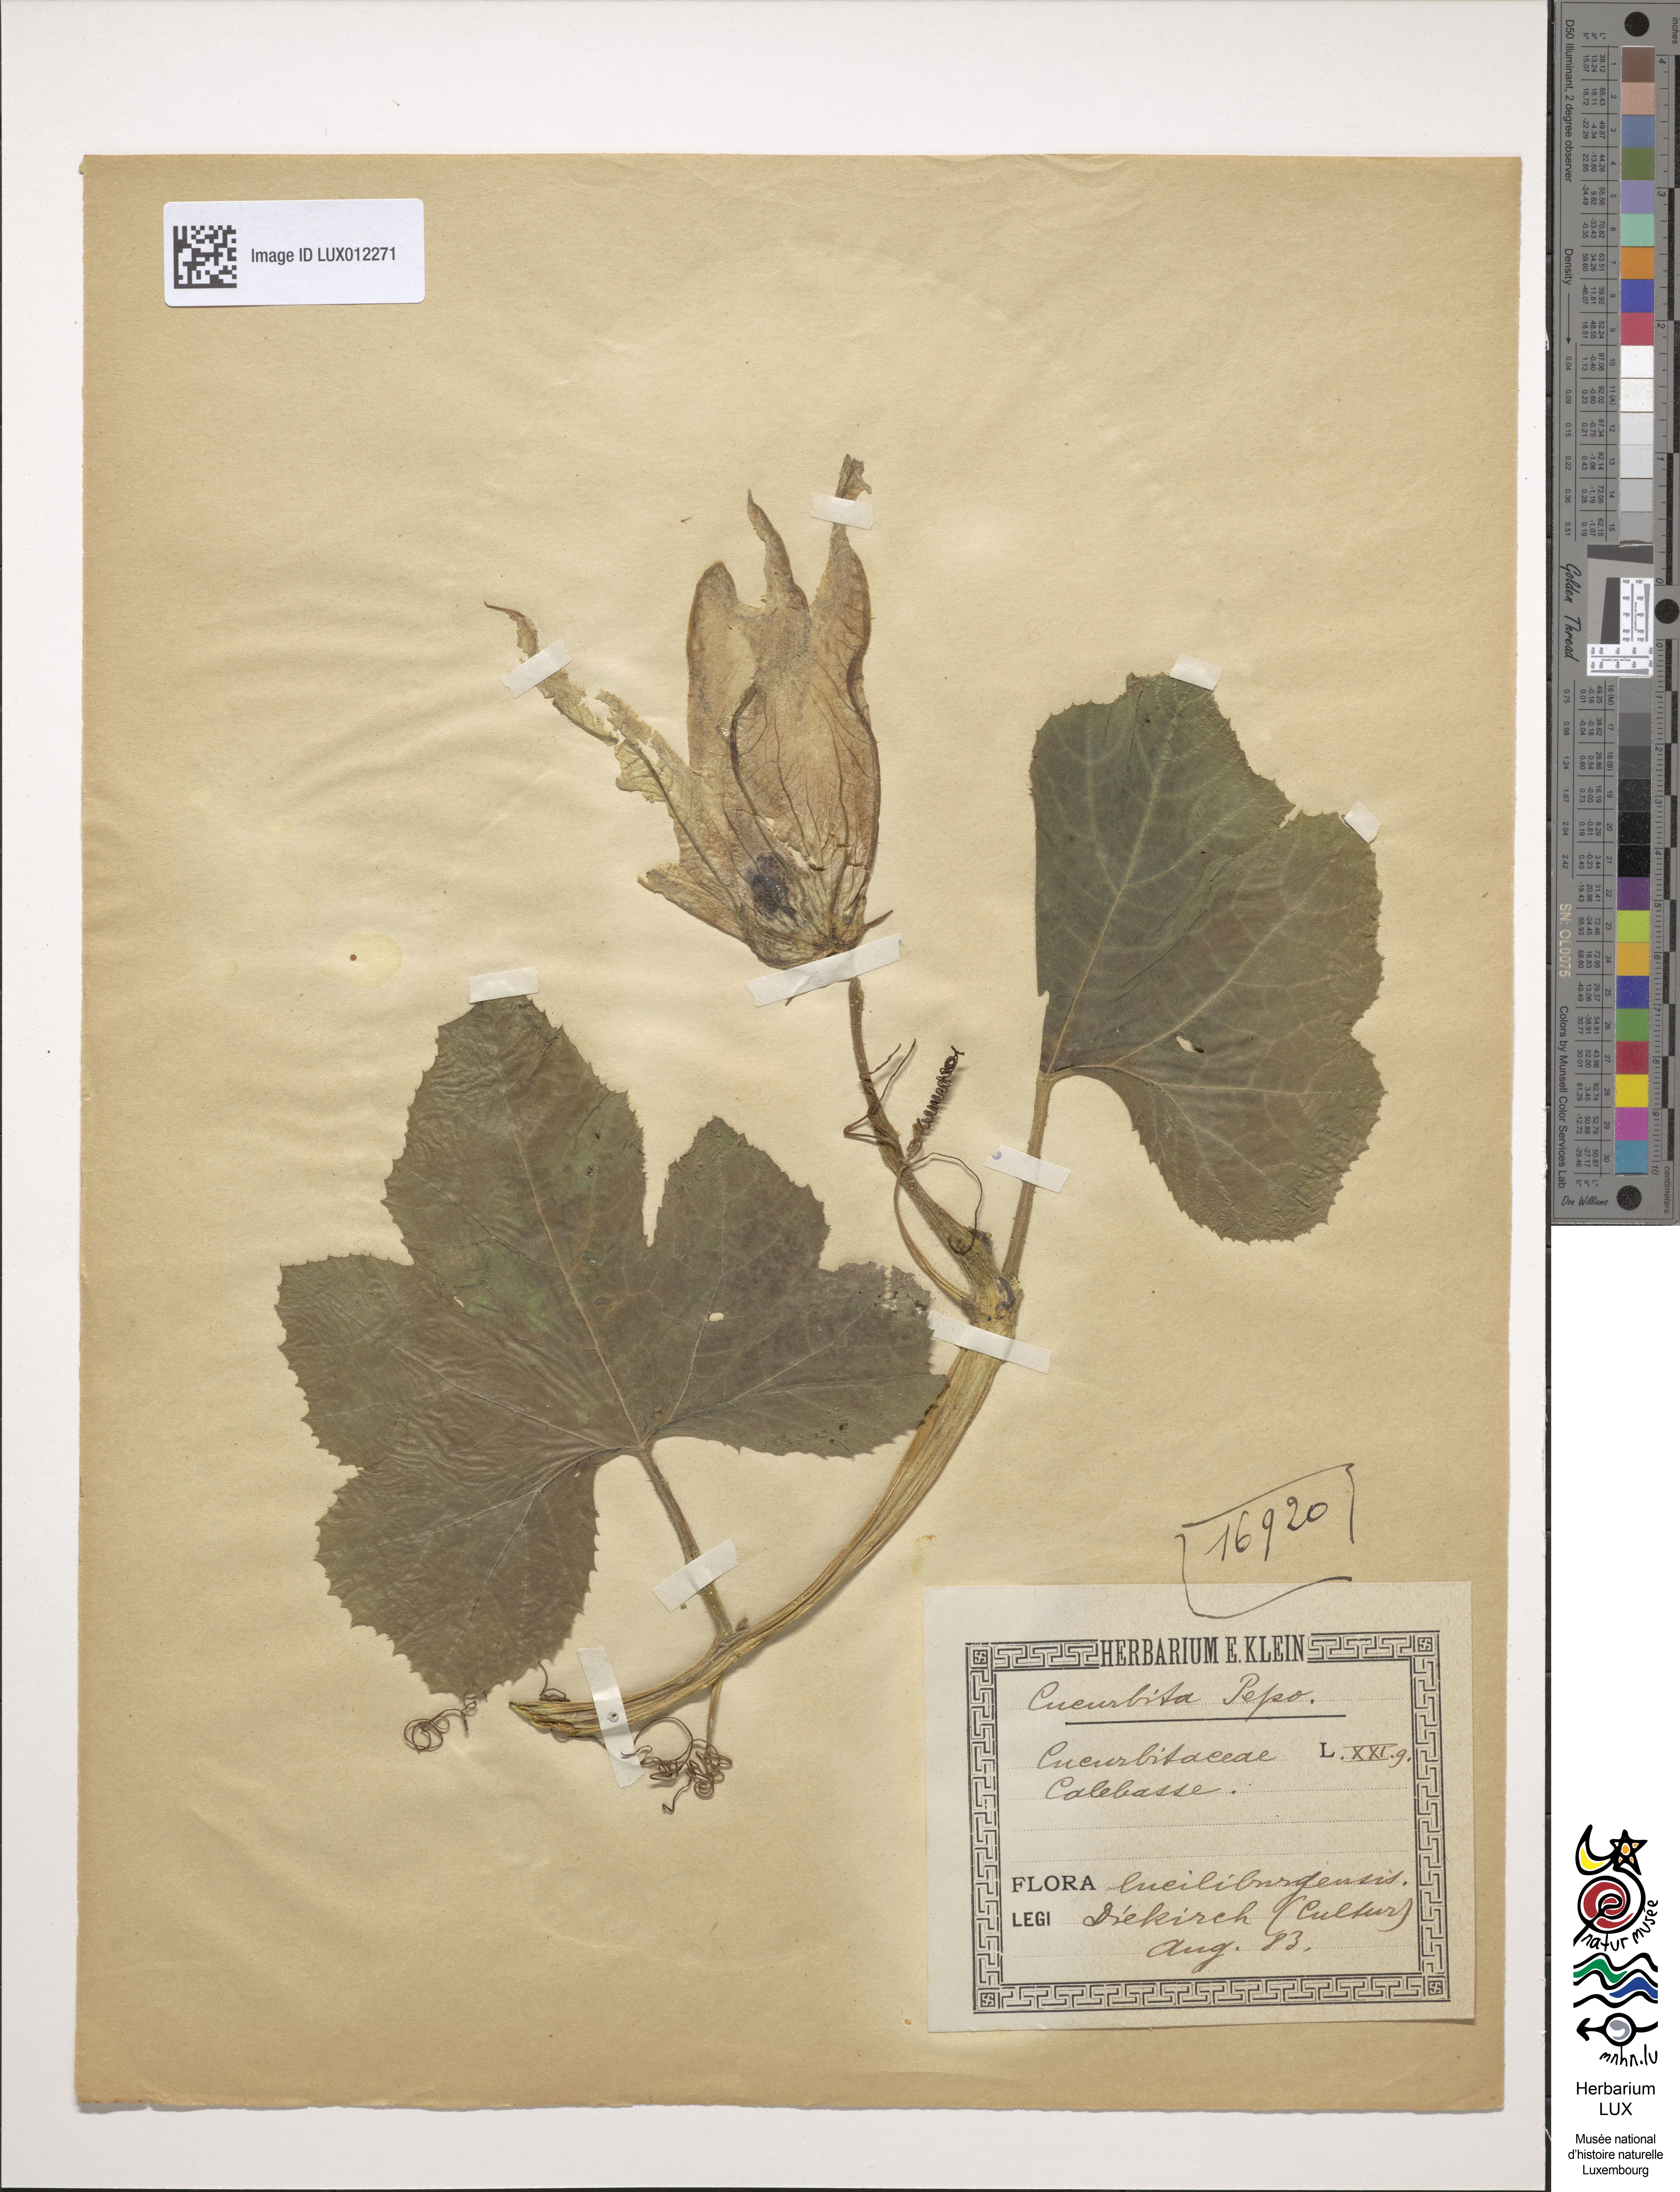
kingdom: Plantae
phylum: Tracheophyta
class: Magnoliopsida
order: Cucurbitales
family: Cucurbitaceae
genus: Cucurbita
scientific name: Cucurbita pepo
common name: Marrow
